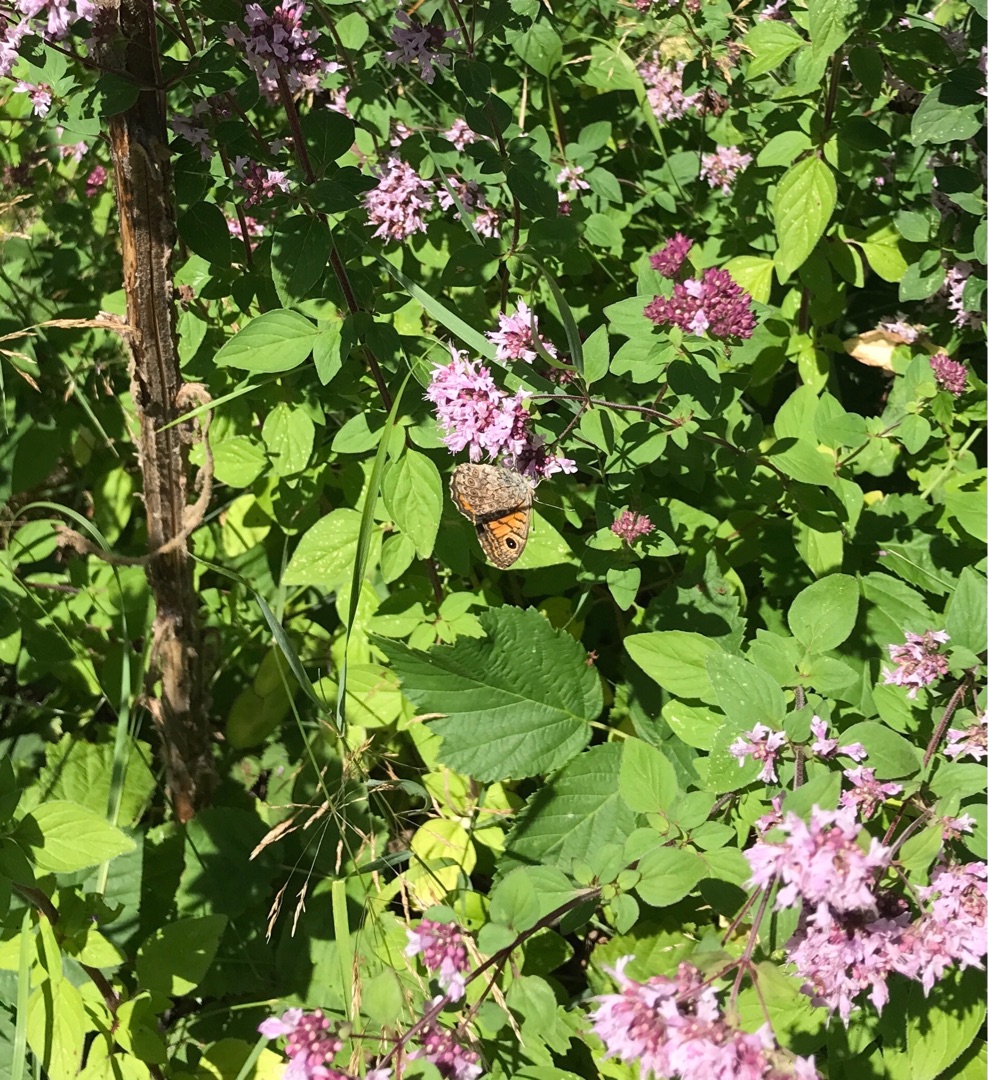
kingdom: Animalia
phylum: Arthropoda
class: Insecta
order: Lepidoptera
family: Nymphalidae
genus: Pararge
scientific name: Pararge Lasiommata megera
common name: Vejrandøje
